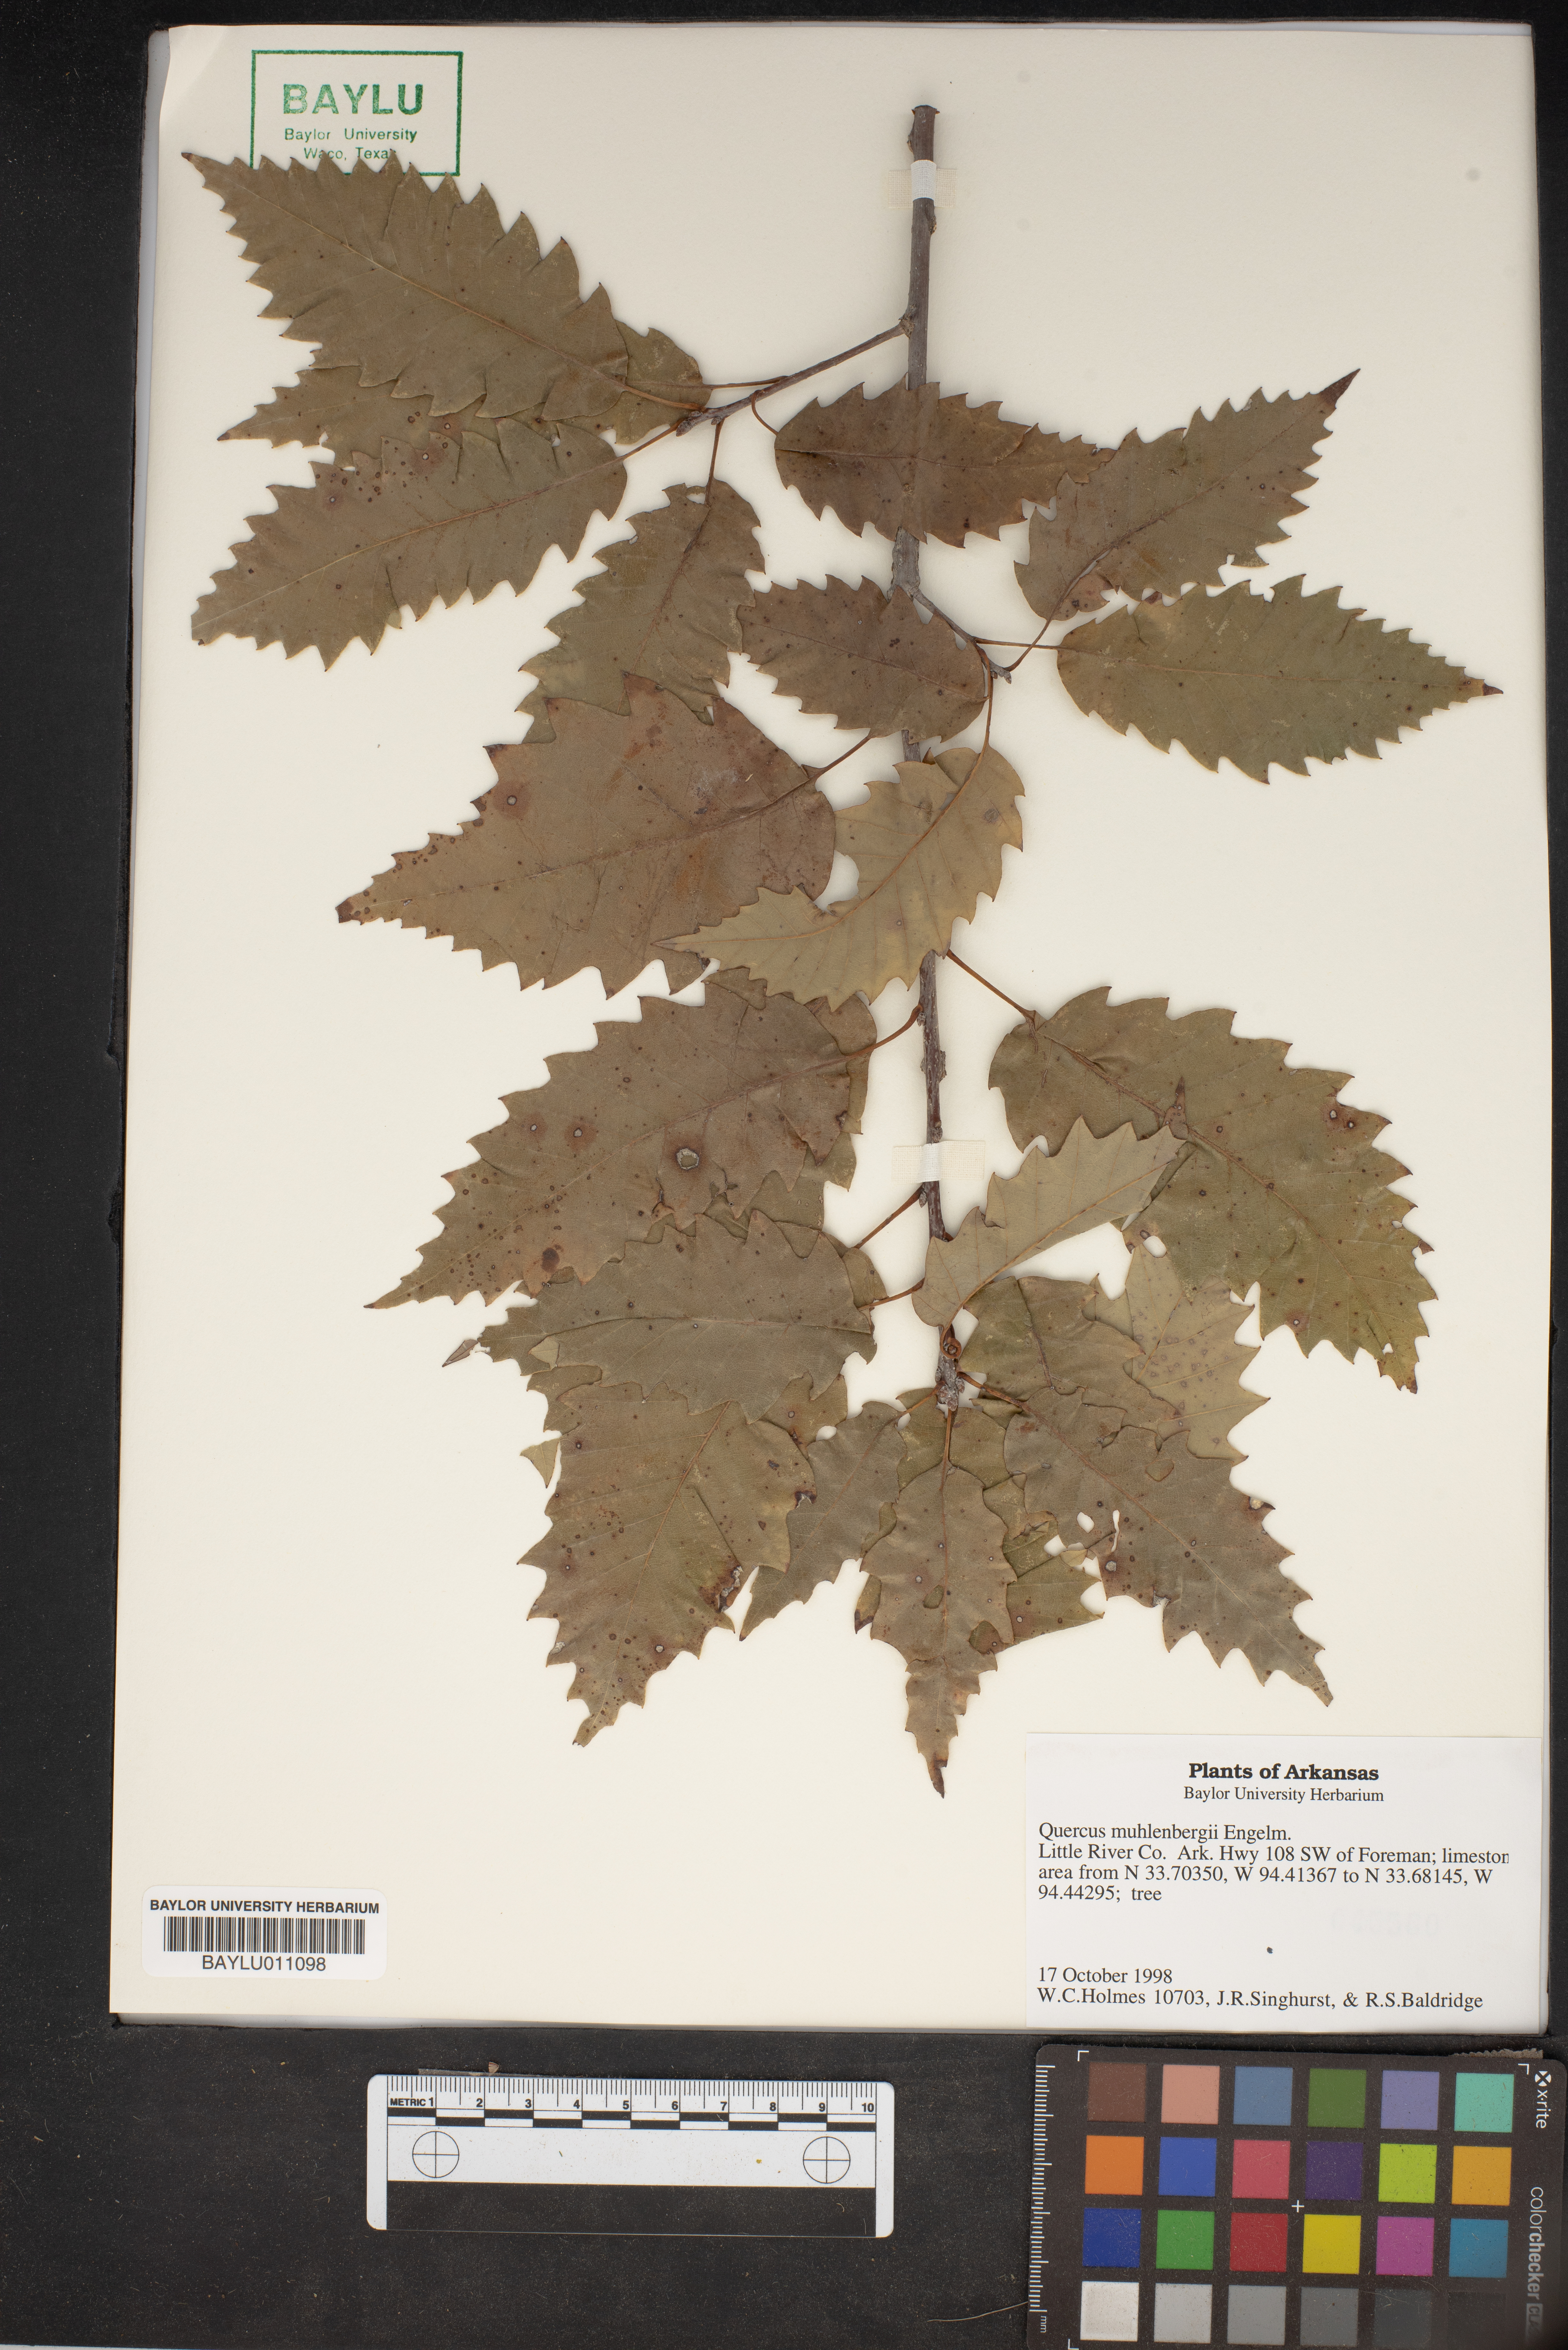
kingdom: Plantae
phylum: Tracheophyta
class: Magnoliopsida
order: Fagales
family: Fagaceae
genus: Quercus
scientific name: Quercus muehlenbergii
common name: Chinkapin oak
